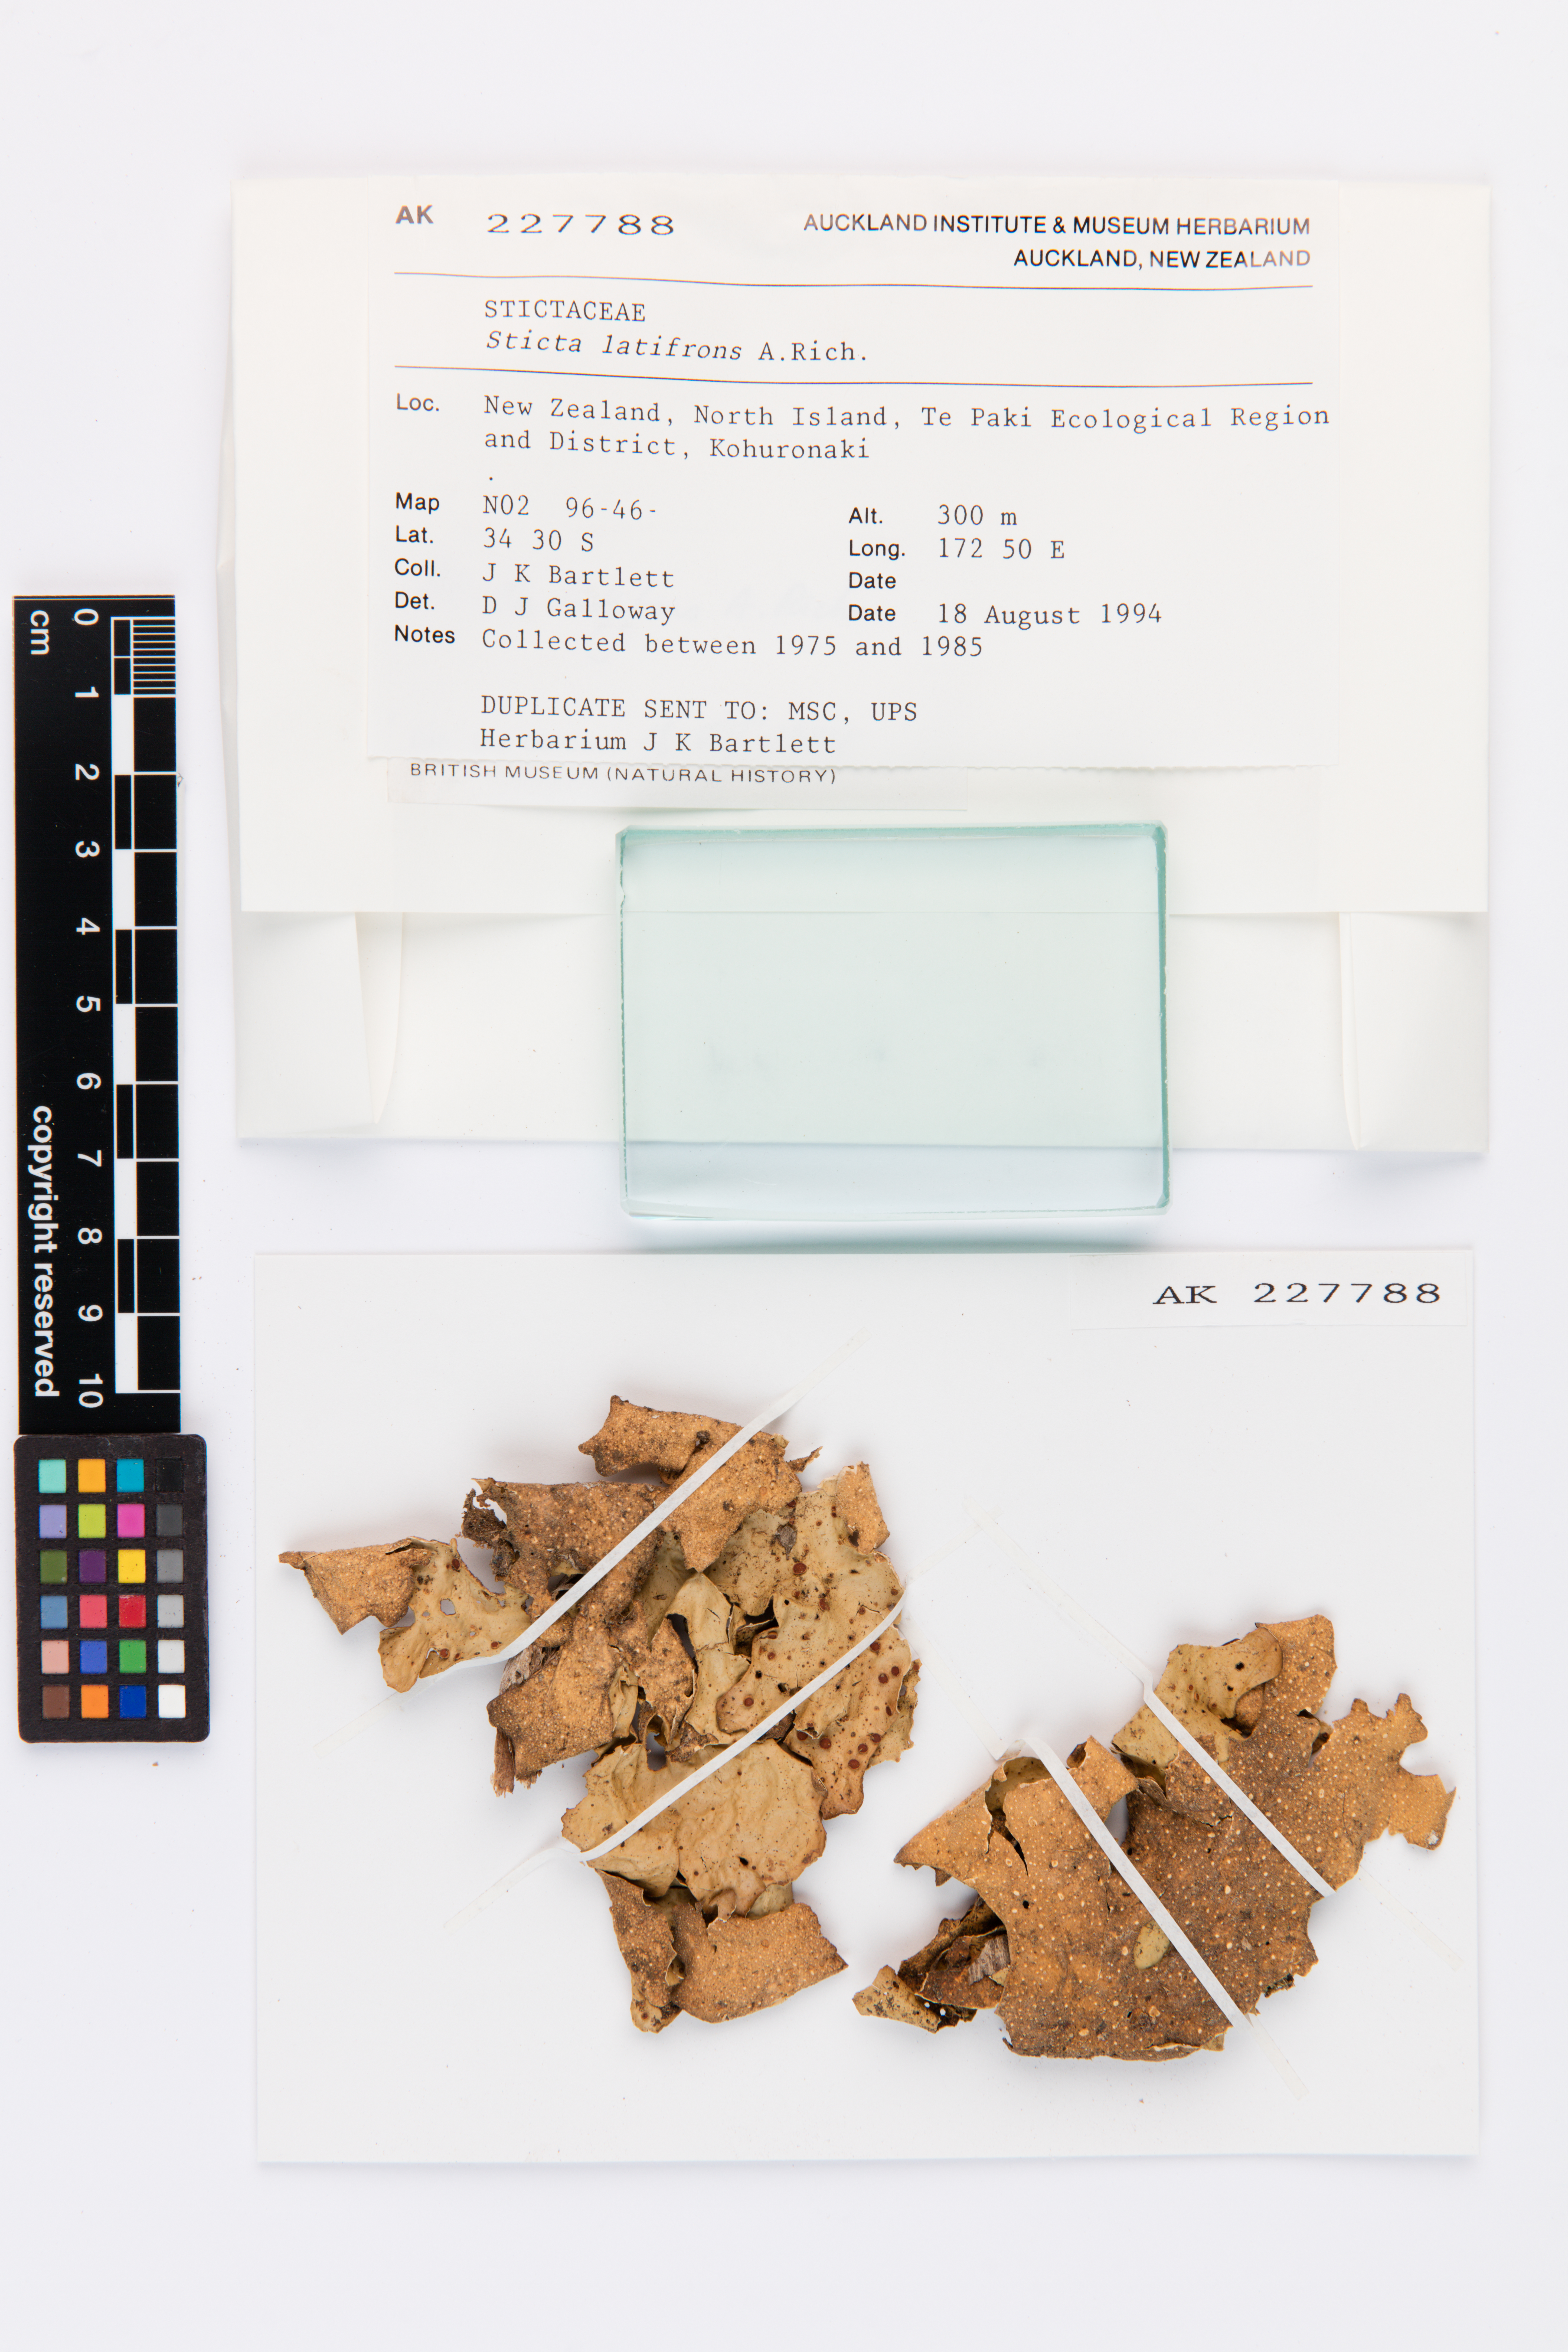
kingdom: Fungi
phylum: Ascomycota
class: Lecanoromycetes
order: Peltigerales
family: Lobariaceae
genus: Sticta
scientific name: Sticta latifrons
